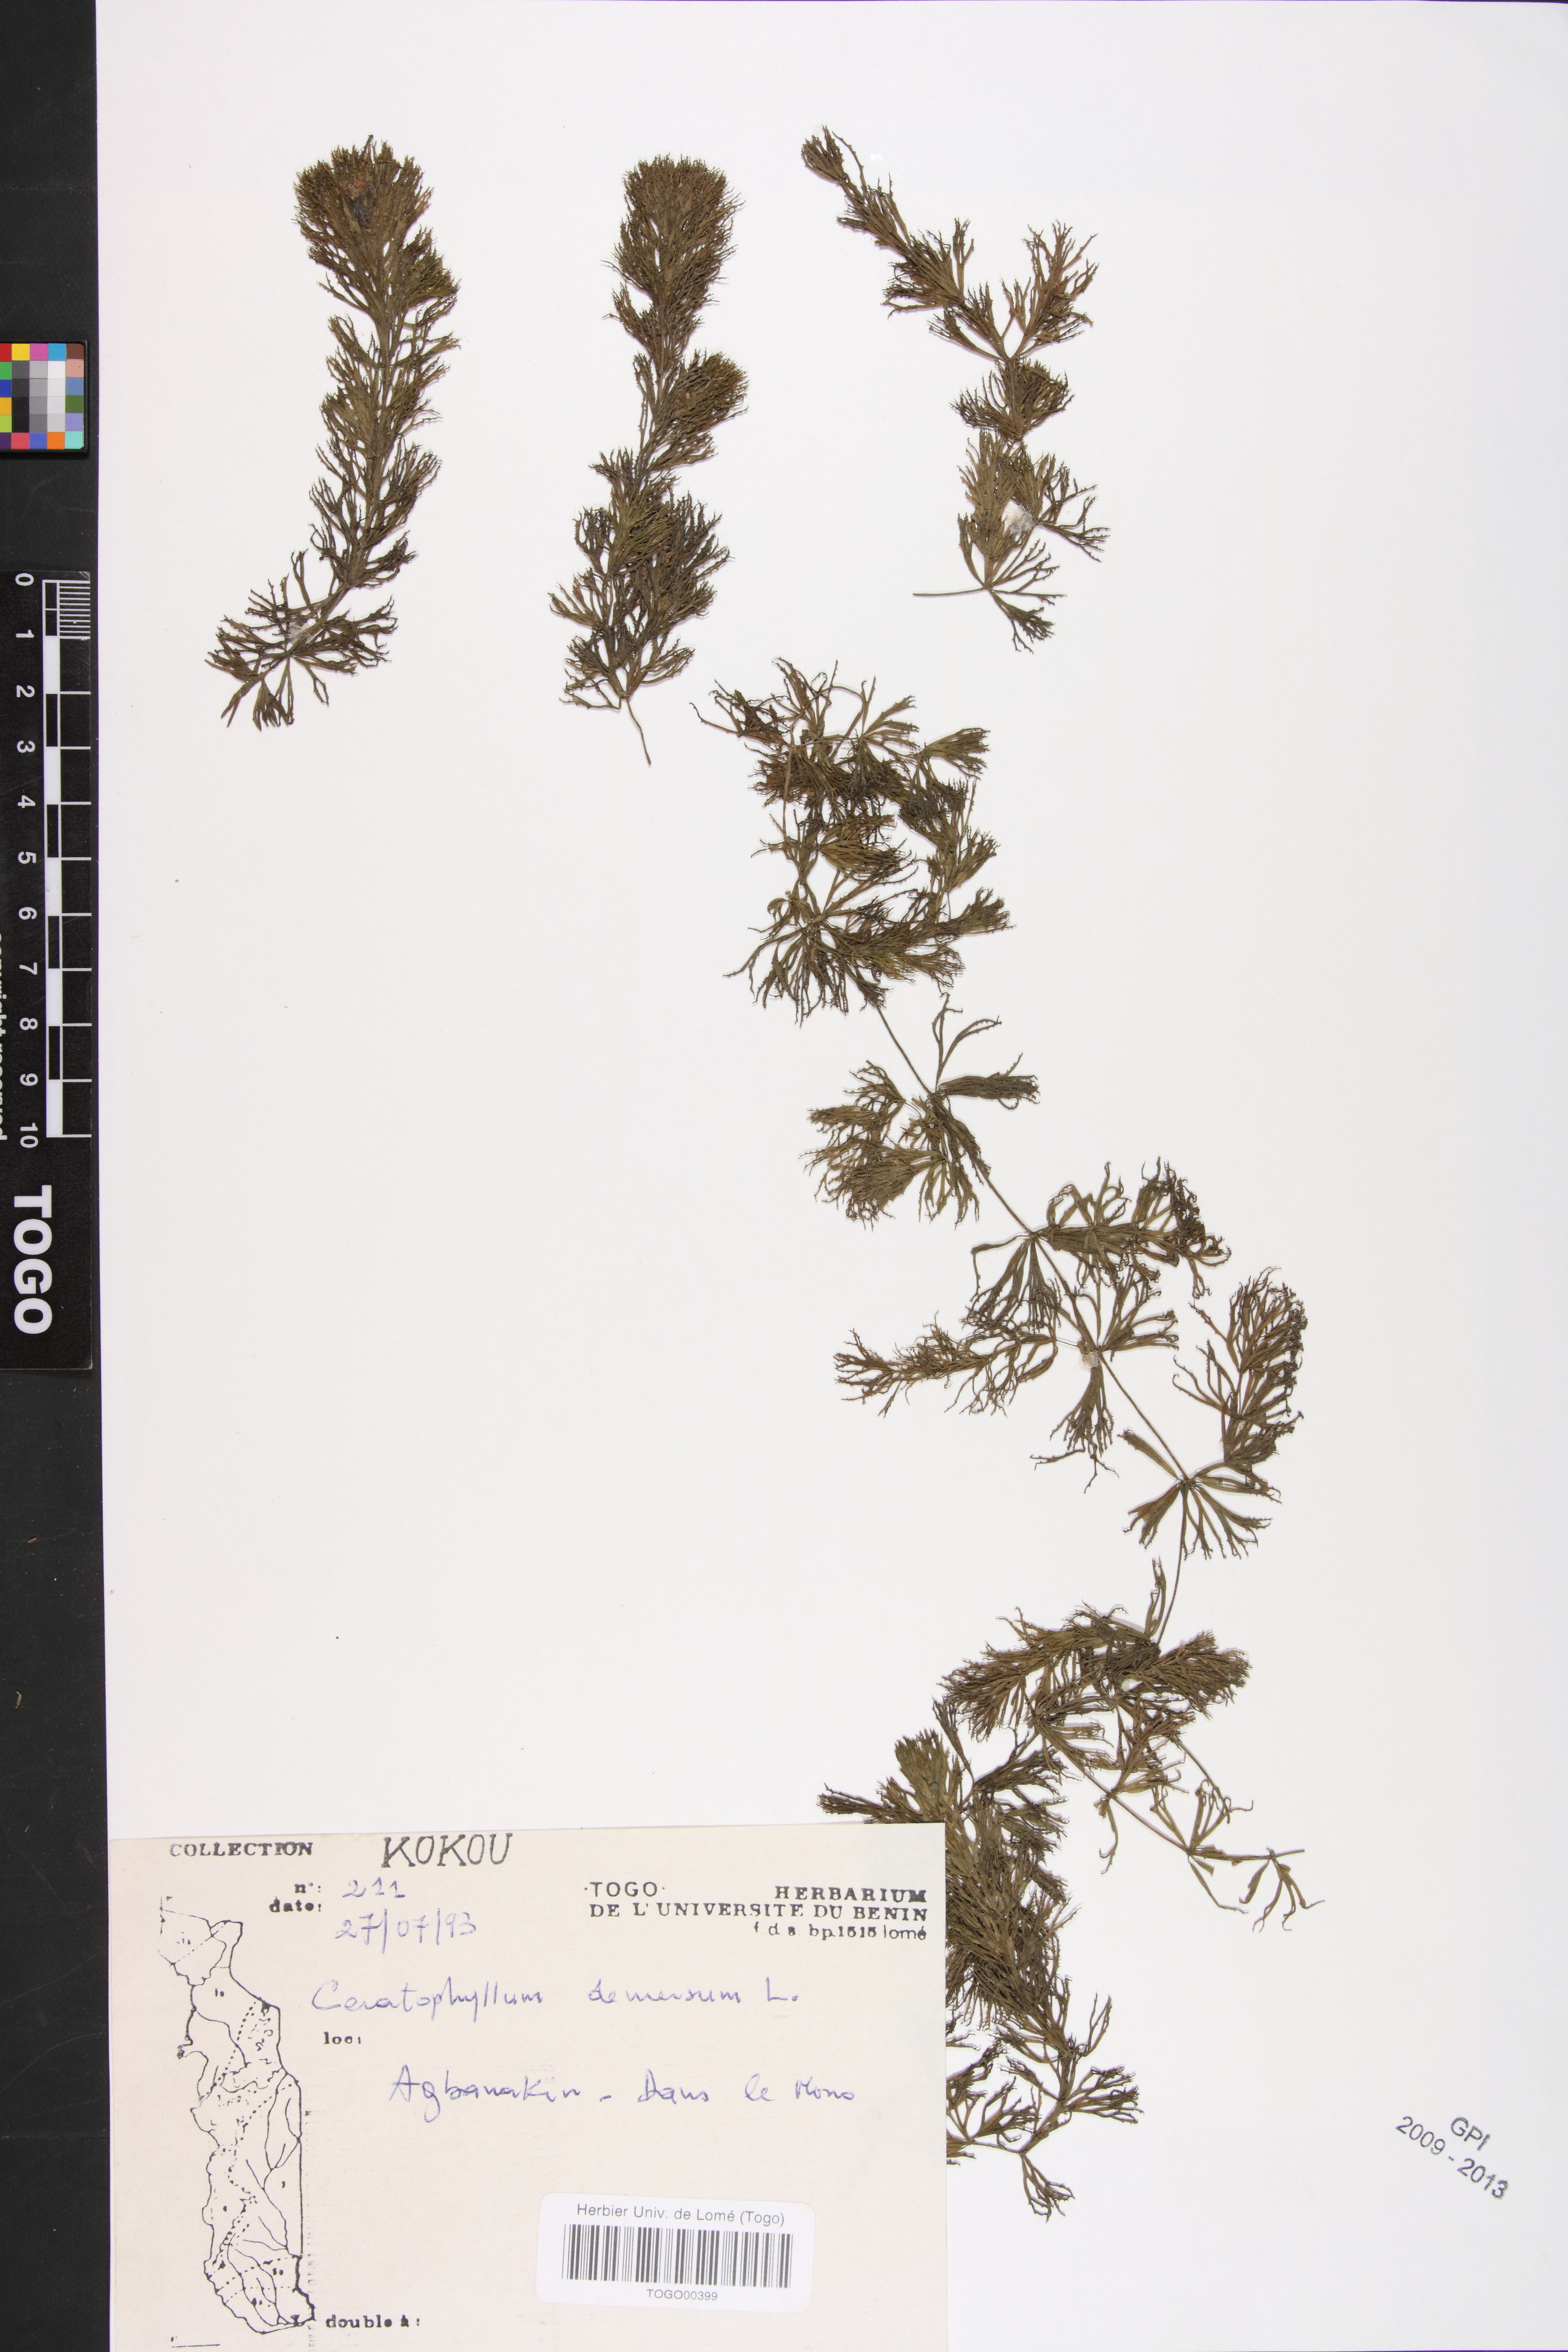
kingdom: Plantae
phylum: Tracheophyta
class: Magnoliopsida
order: Ceratophyllales
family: Ceratophyllaceae
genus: Ceratophyllum
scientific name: Ceratophyllum demersum
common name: Rigid hornwort
